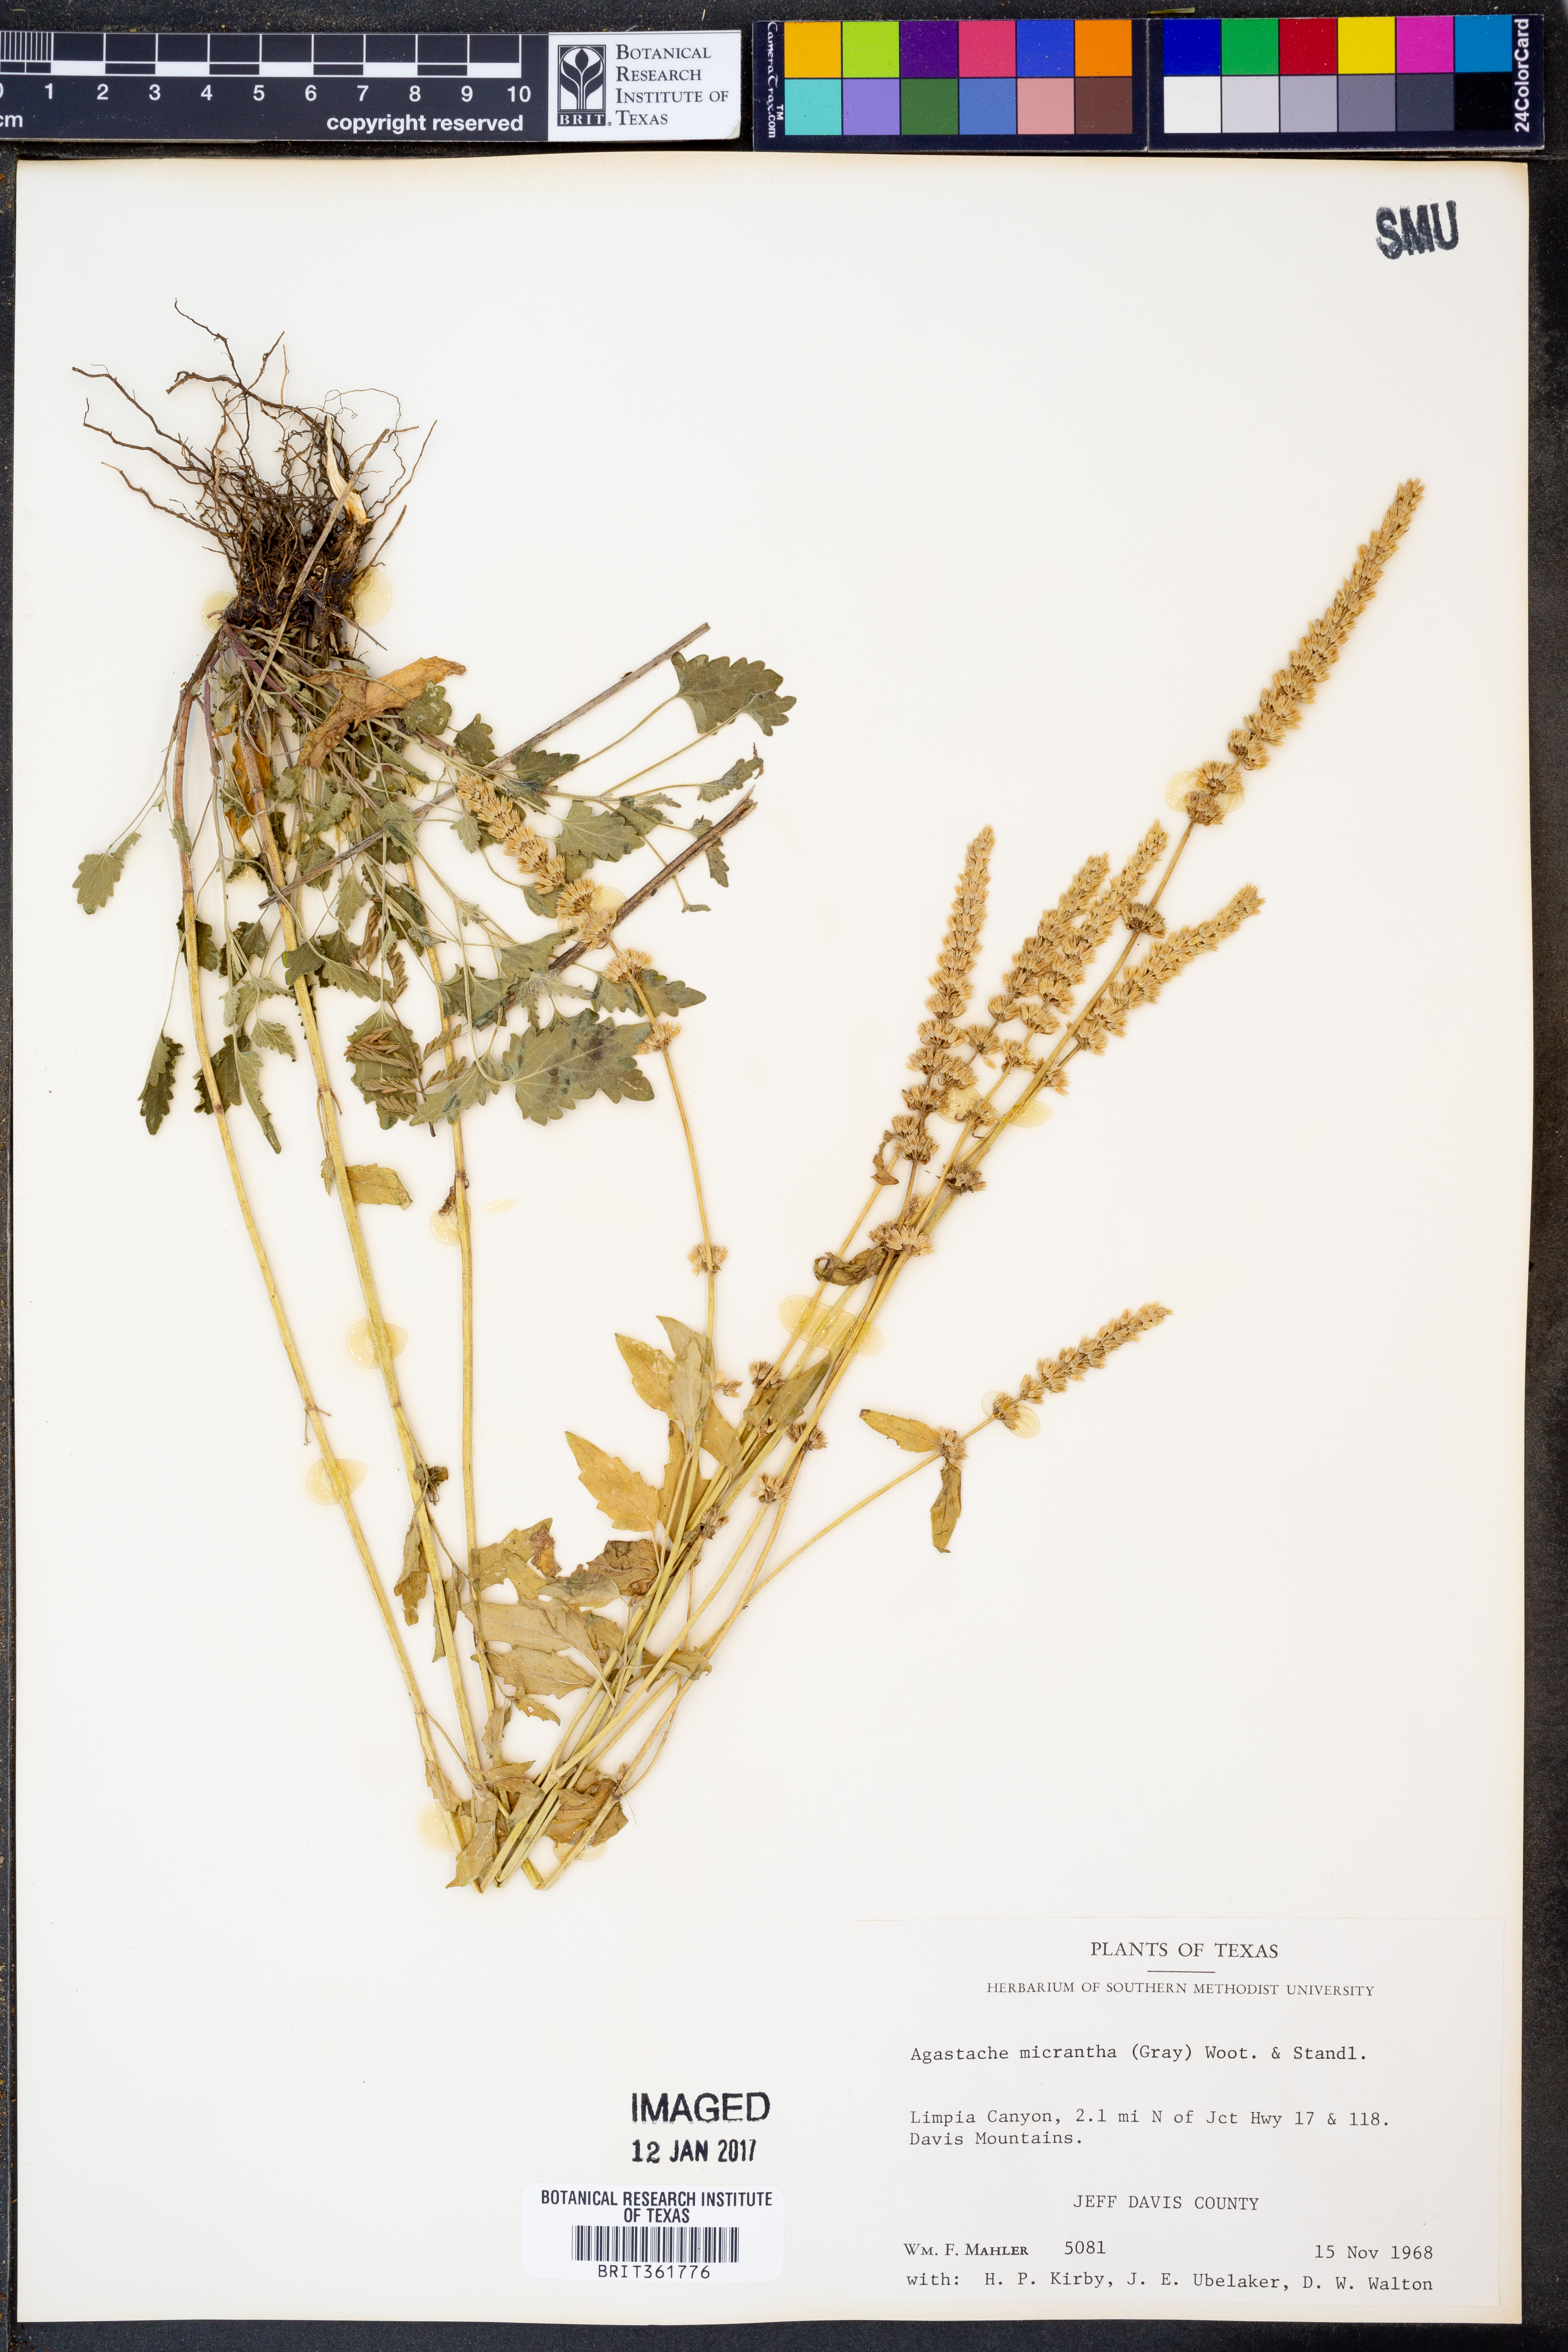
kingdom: Plantae
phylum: Tracheophyta
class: Magnoliopsida
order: Lamiales
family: Lamiaceae
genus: Agastache
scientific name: Agastache micrantha
